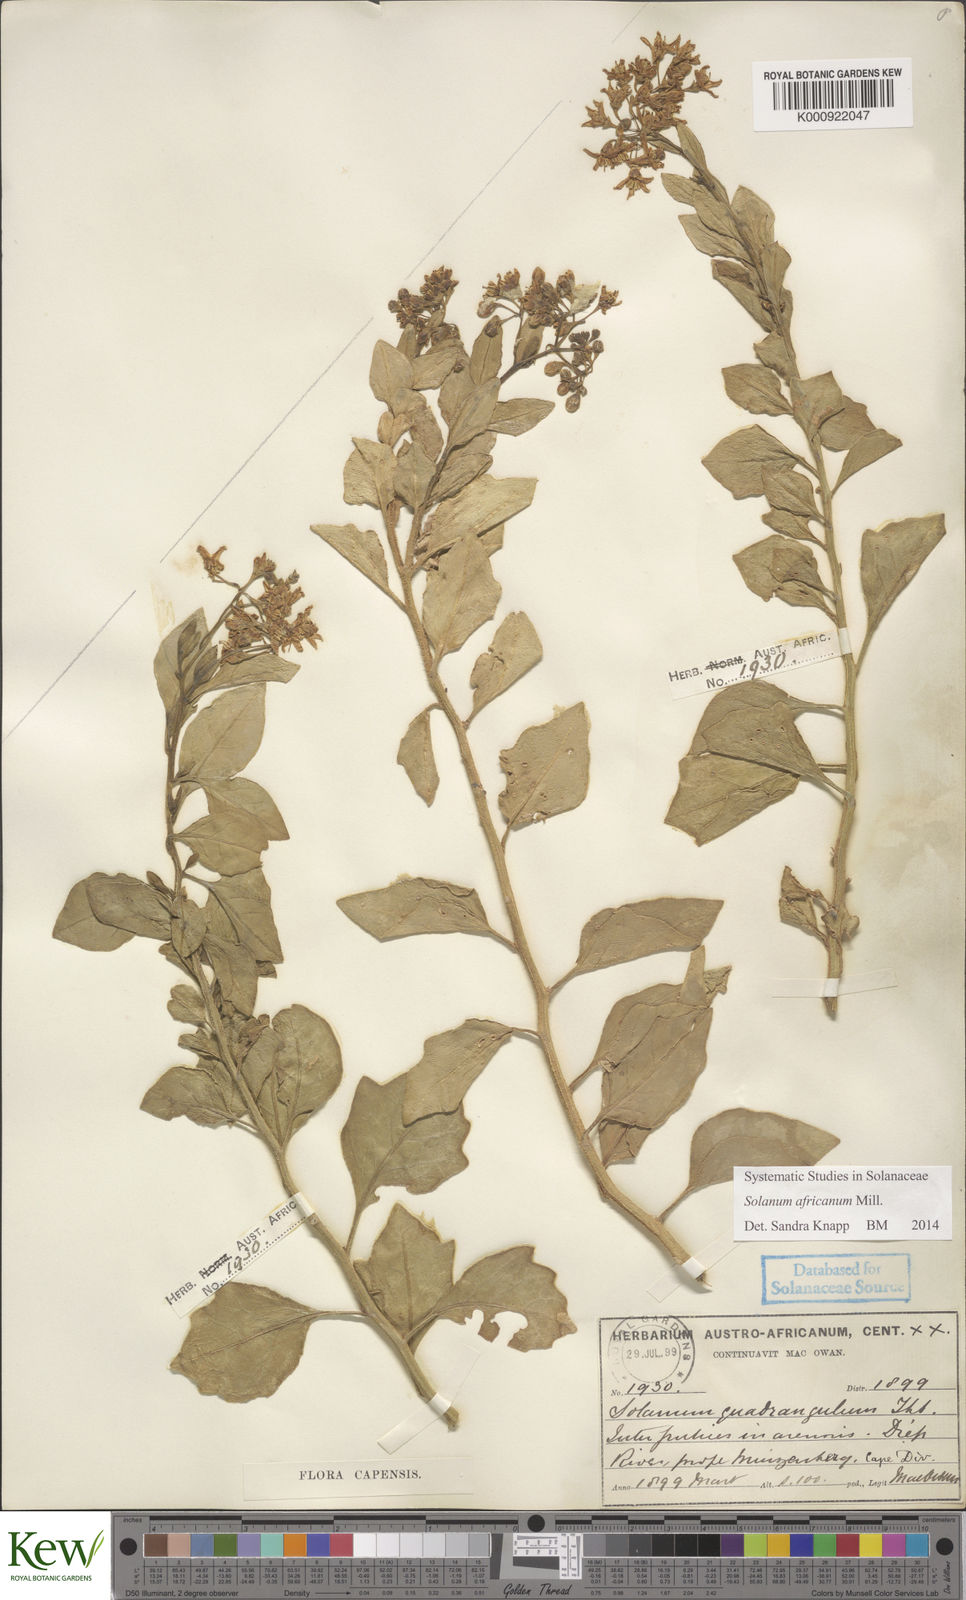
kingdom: Plantae
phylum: Tracheophyta
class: Magnoliopsida
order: Solanales
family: Solanaceae
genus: Solanum
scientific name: Solanum africanum
